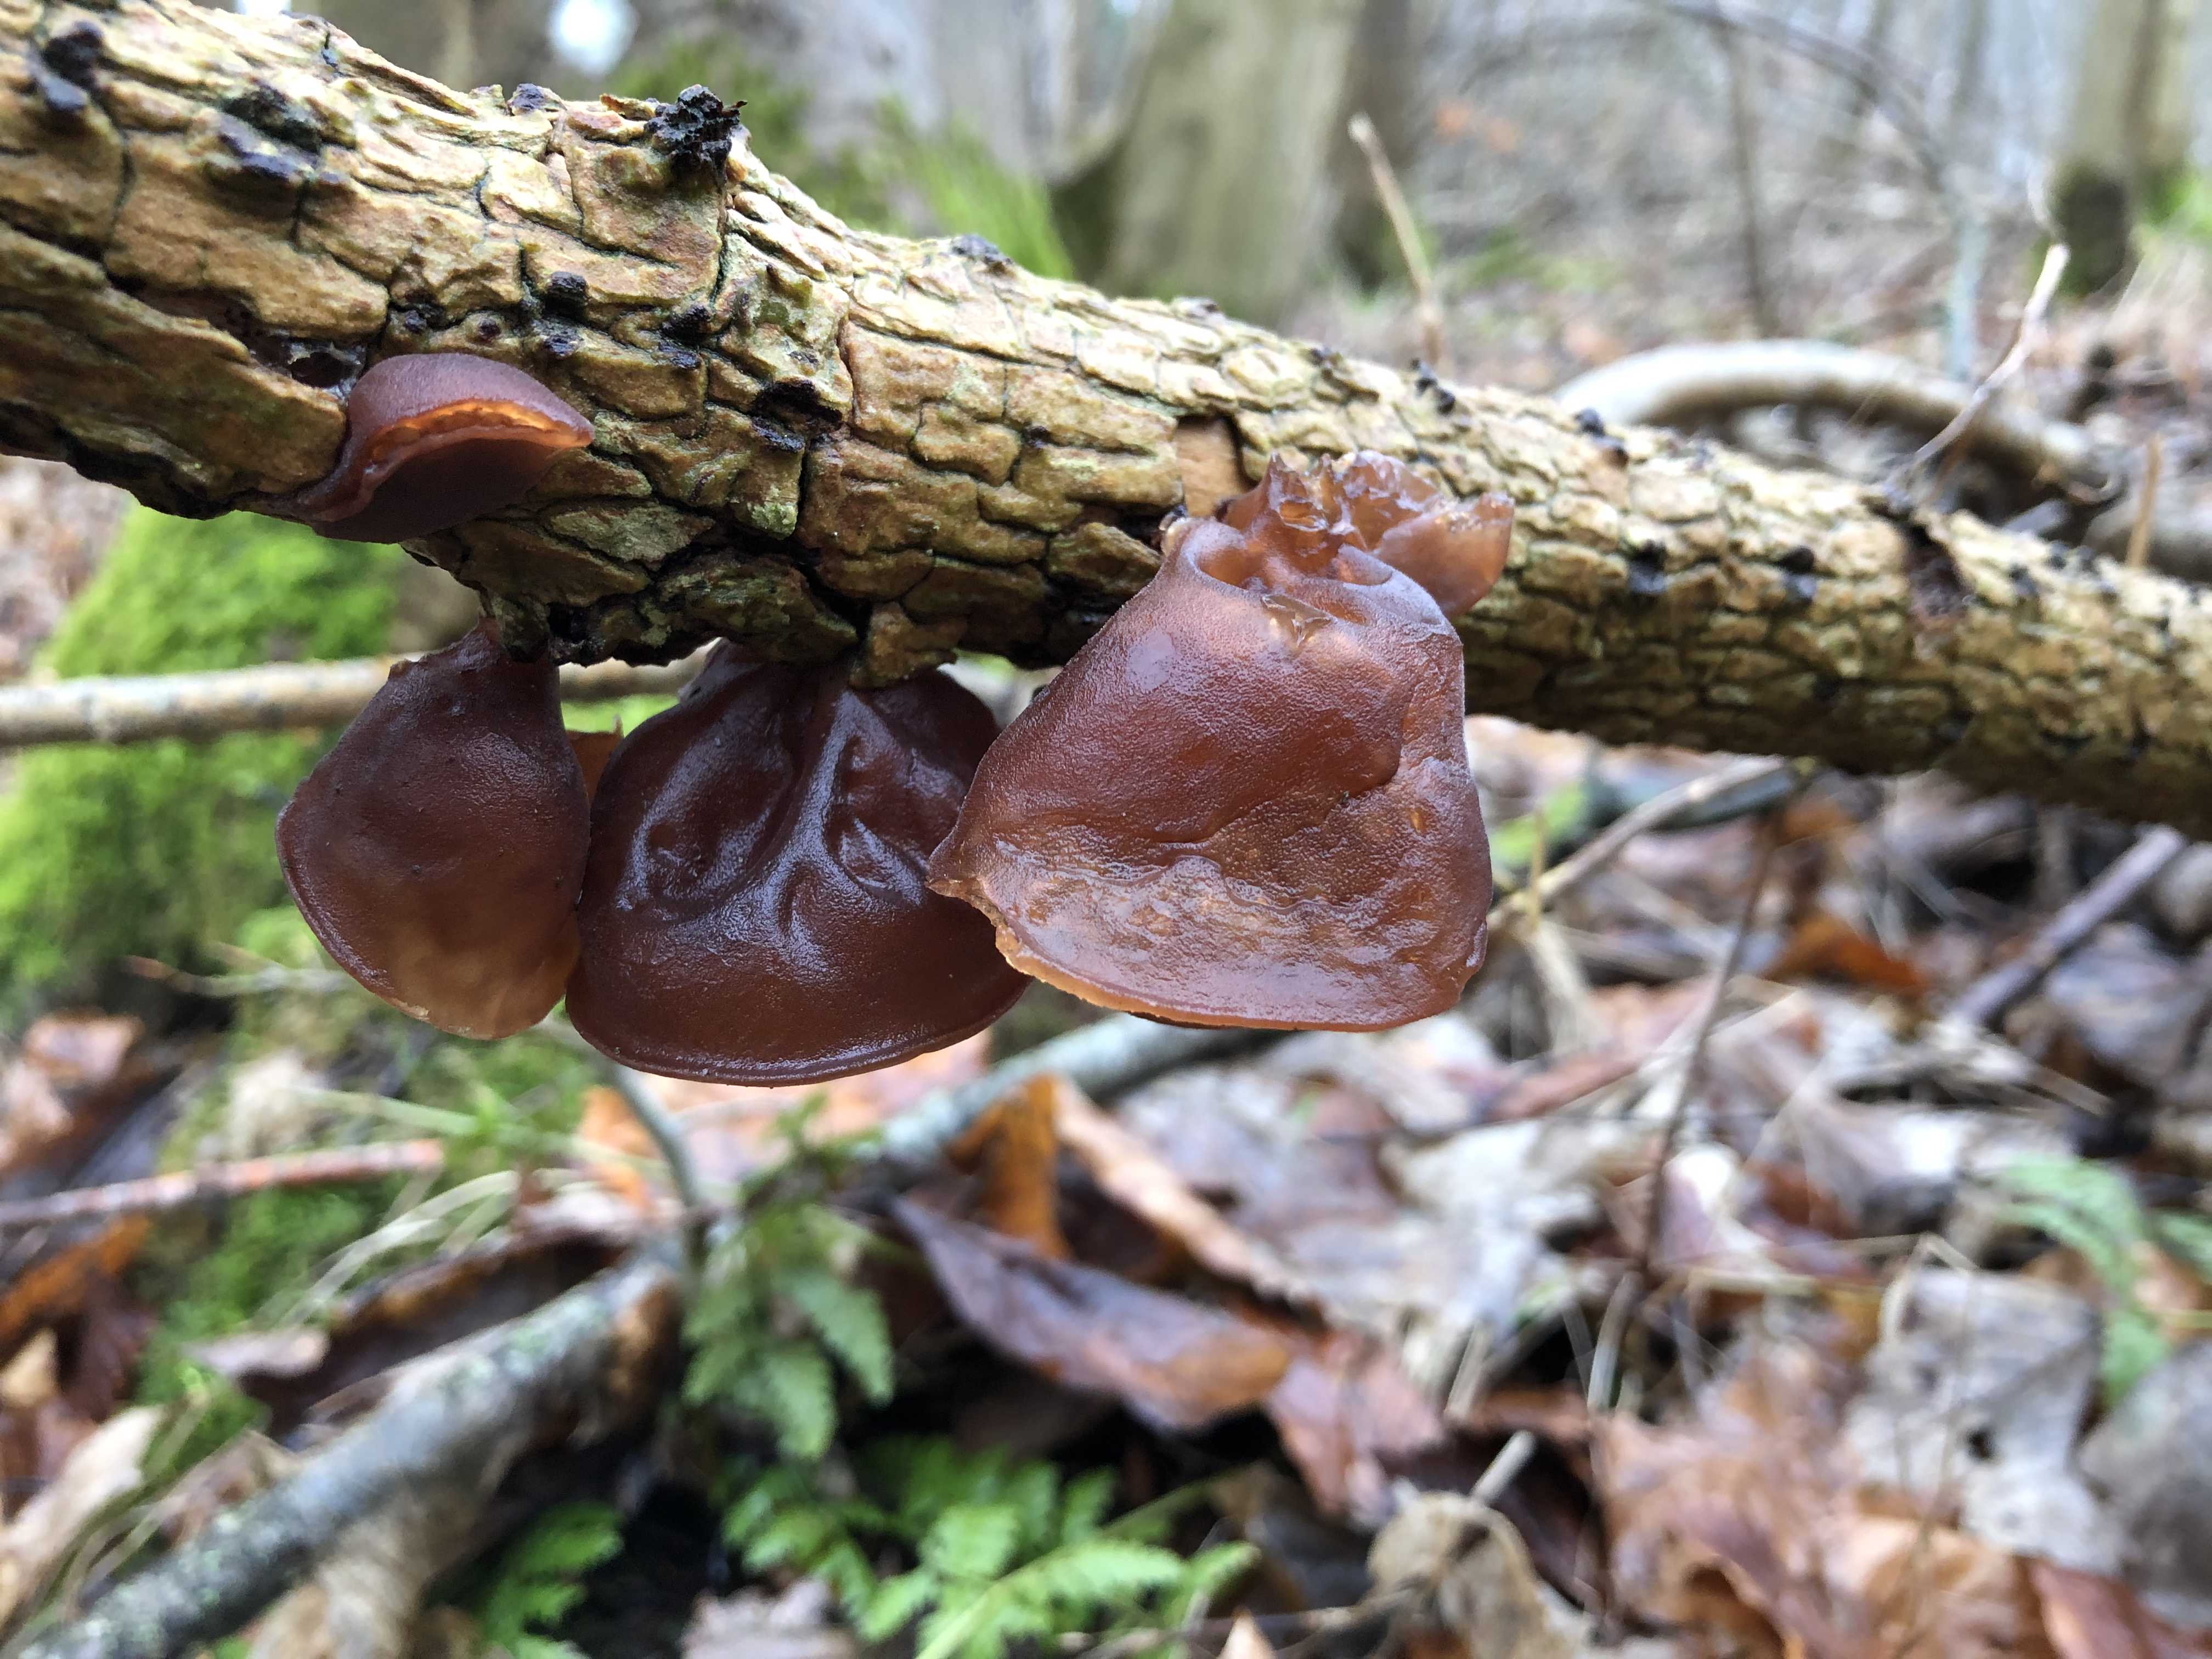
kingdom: Fungi
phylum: Basidiomycota
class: Agaricomycetes
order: Auriculariales
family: Auriculariaceae
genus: Auricularia
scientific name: Auricularia auricula-judae
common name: almindelig judasøre
